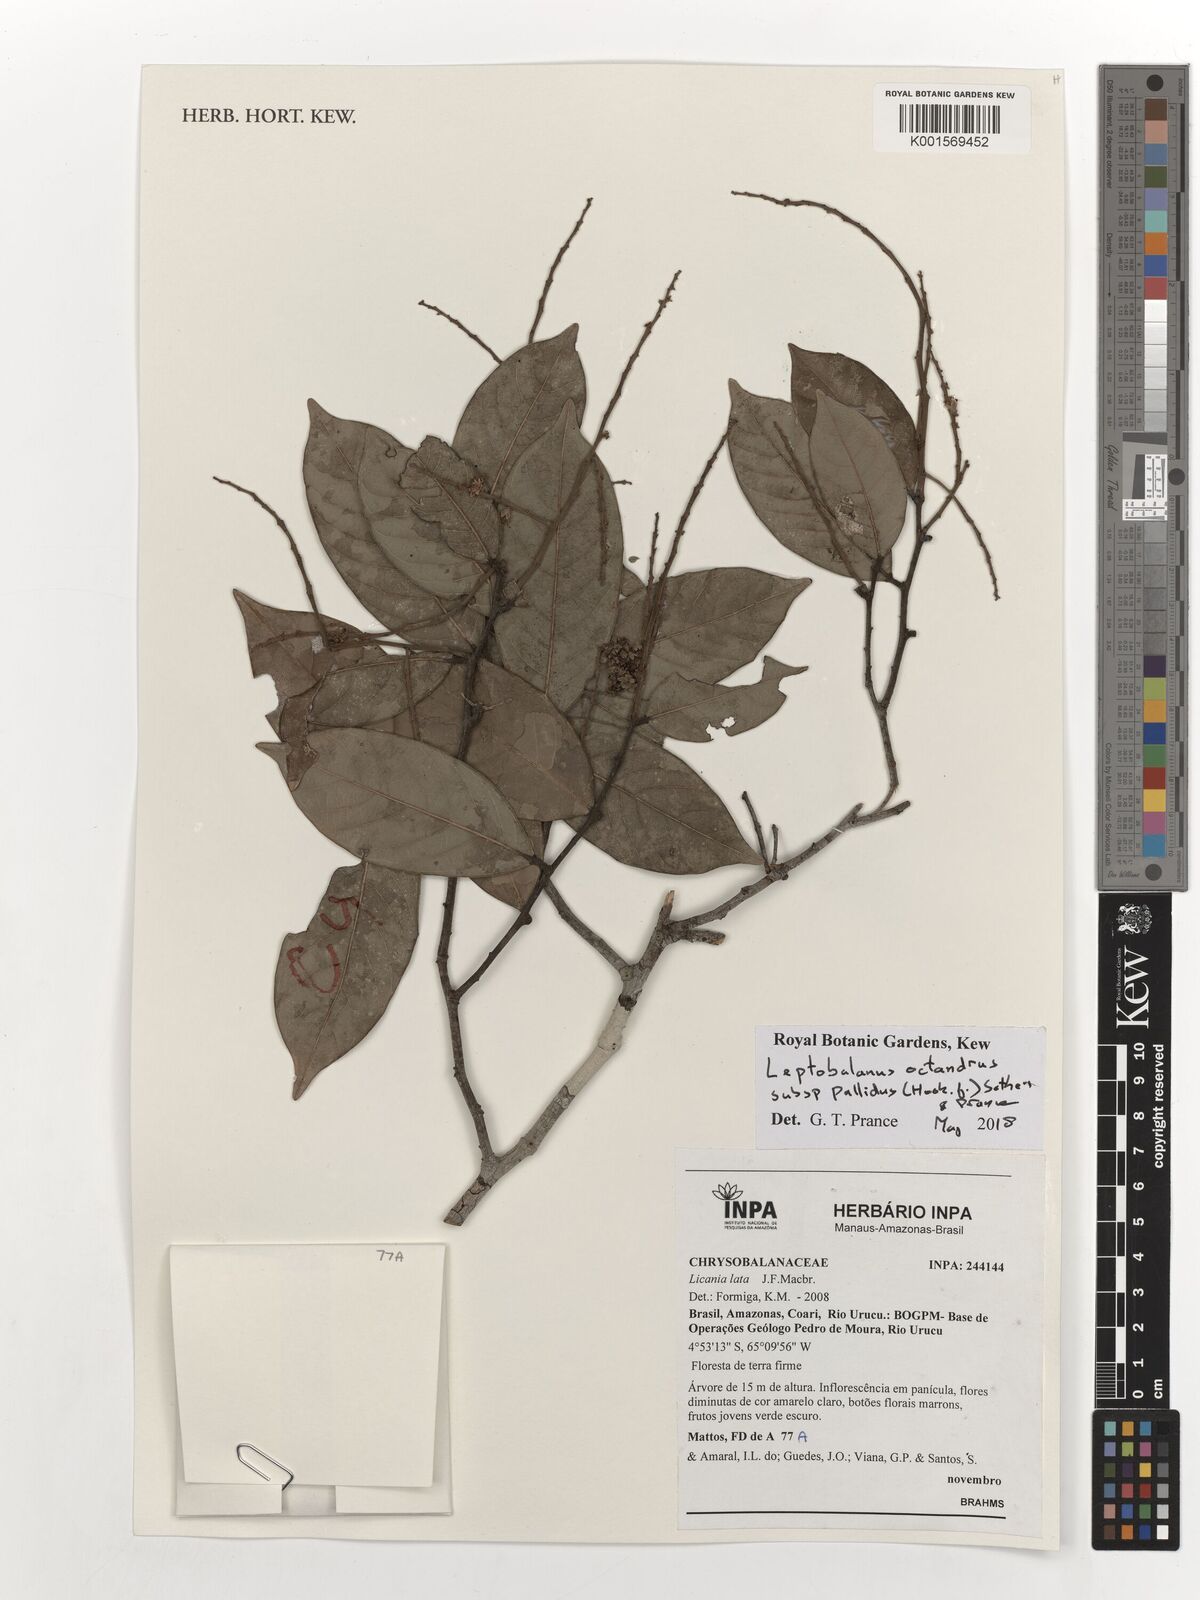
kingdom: Plantae
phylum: Tracheophyta
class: Magnoliopsida
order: Malpighiales
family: Chrysobalanaceae
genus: Leptobalanus
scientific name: Leptobalanus octandrus
